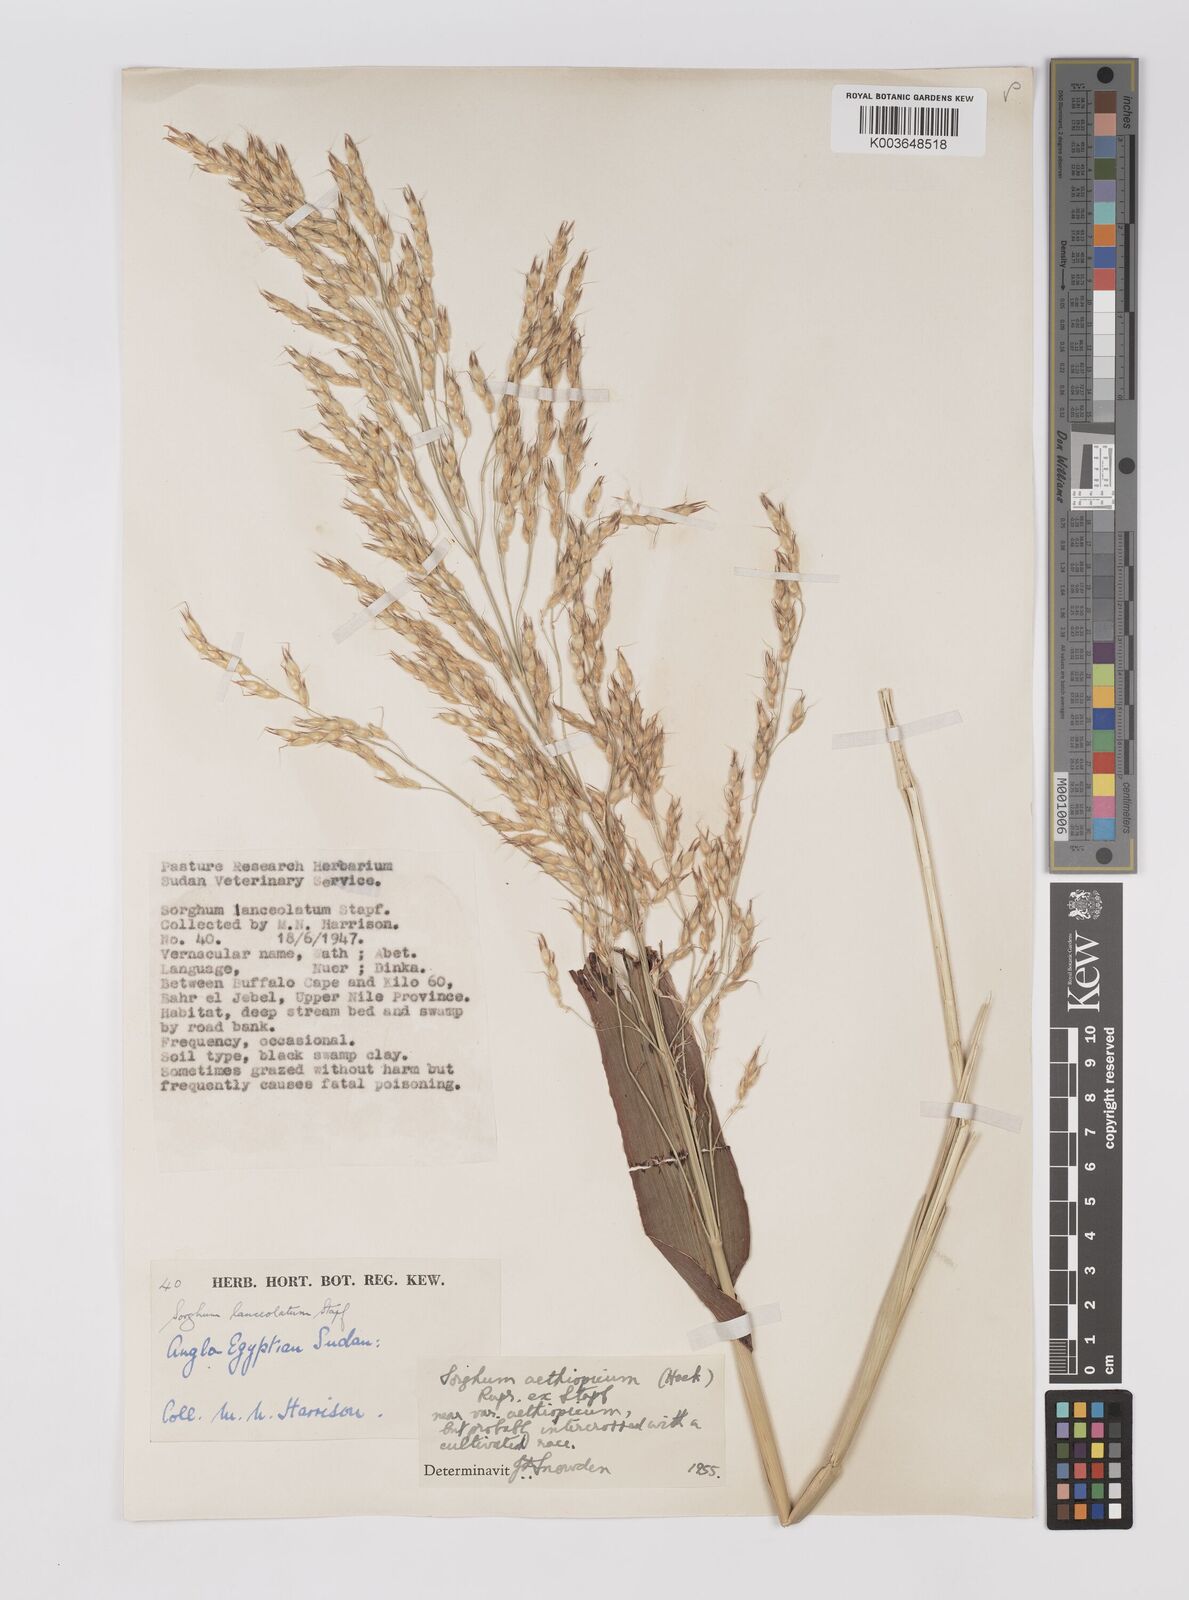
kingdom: Plantae
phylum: Tracheophyta
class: Liliopsida
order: Poales
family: Poaceae
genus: Sorghum
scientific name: Sorghum drummondii
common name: Sudangrass
